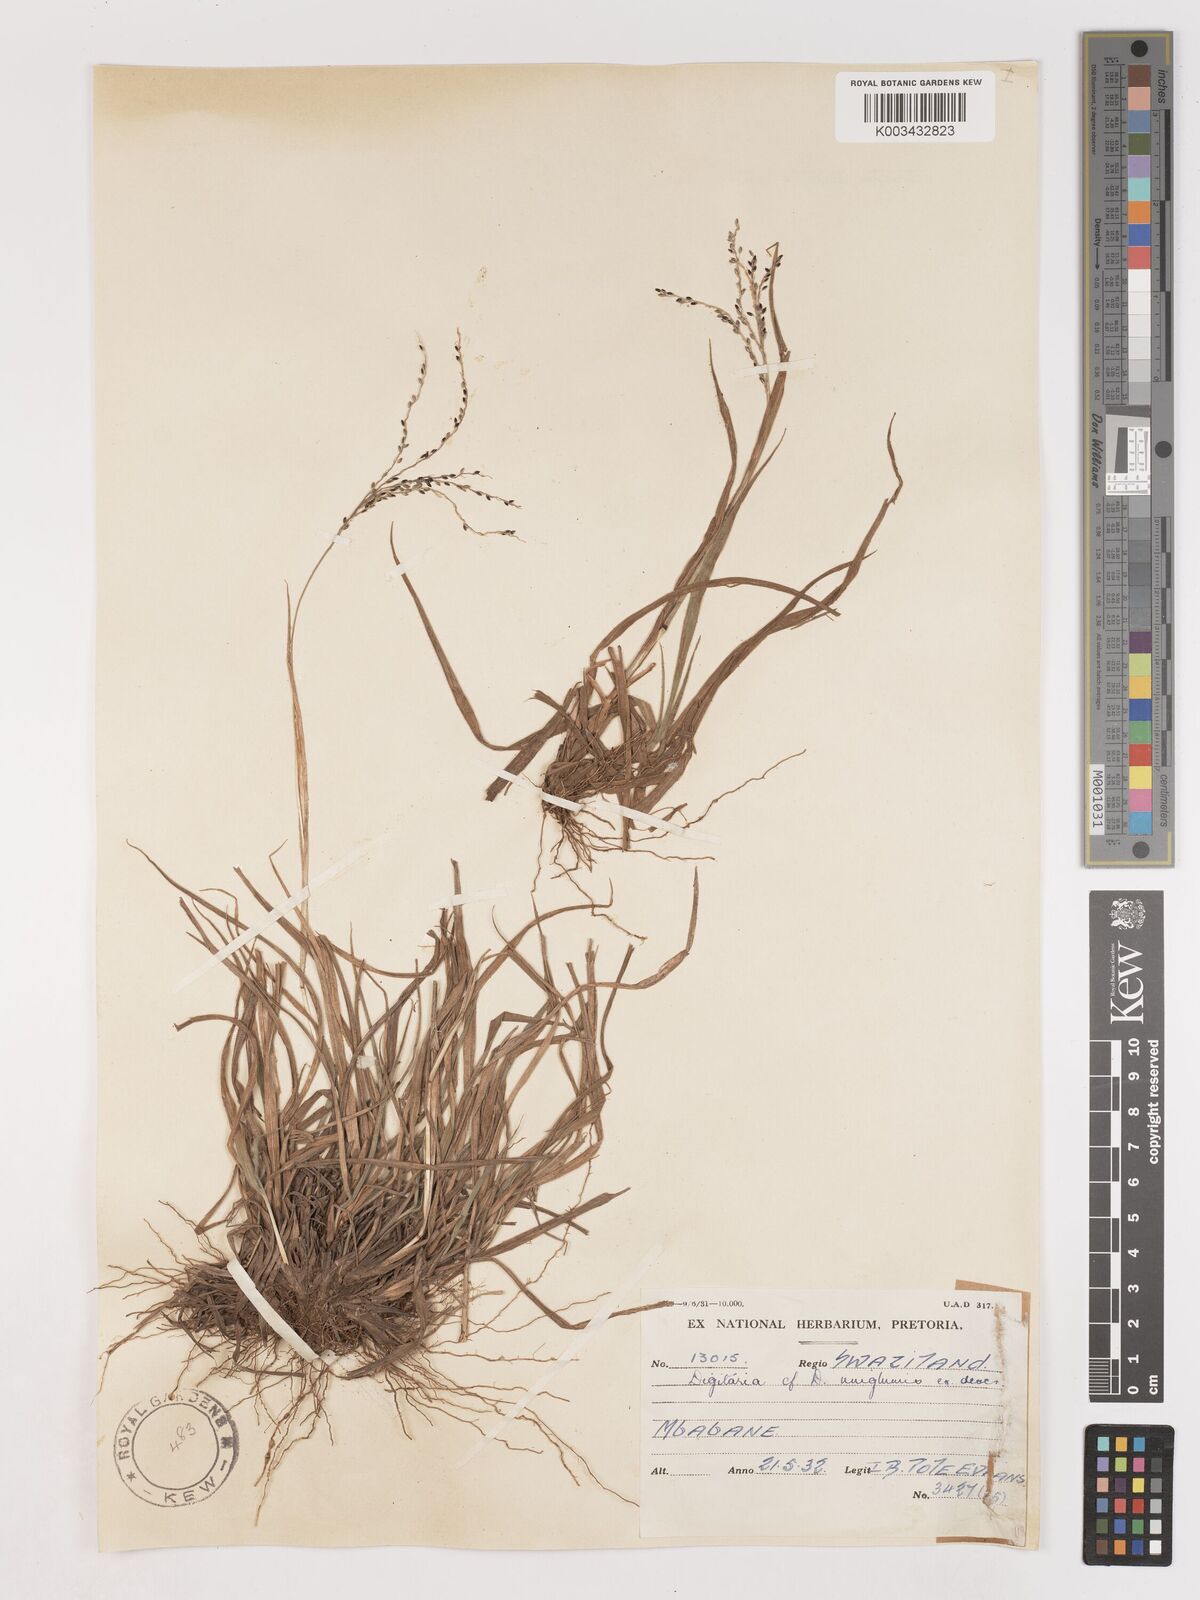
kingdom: Plantae
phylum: Tracheophyta
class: Liliopsida
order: Poales
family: Poaceae
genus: Digitaria
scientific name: Digitaria maitlandii
